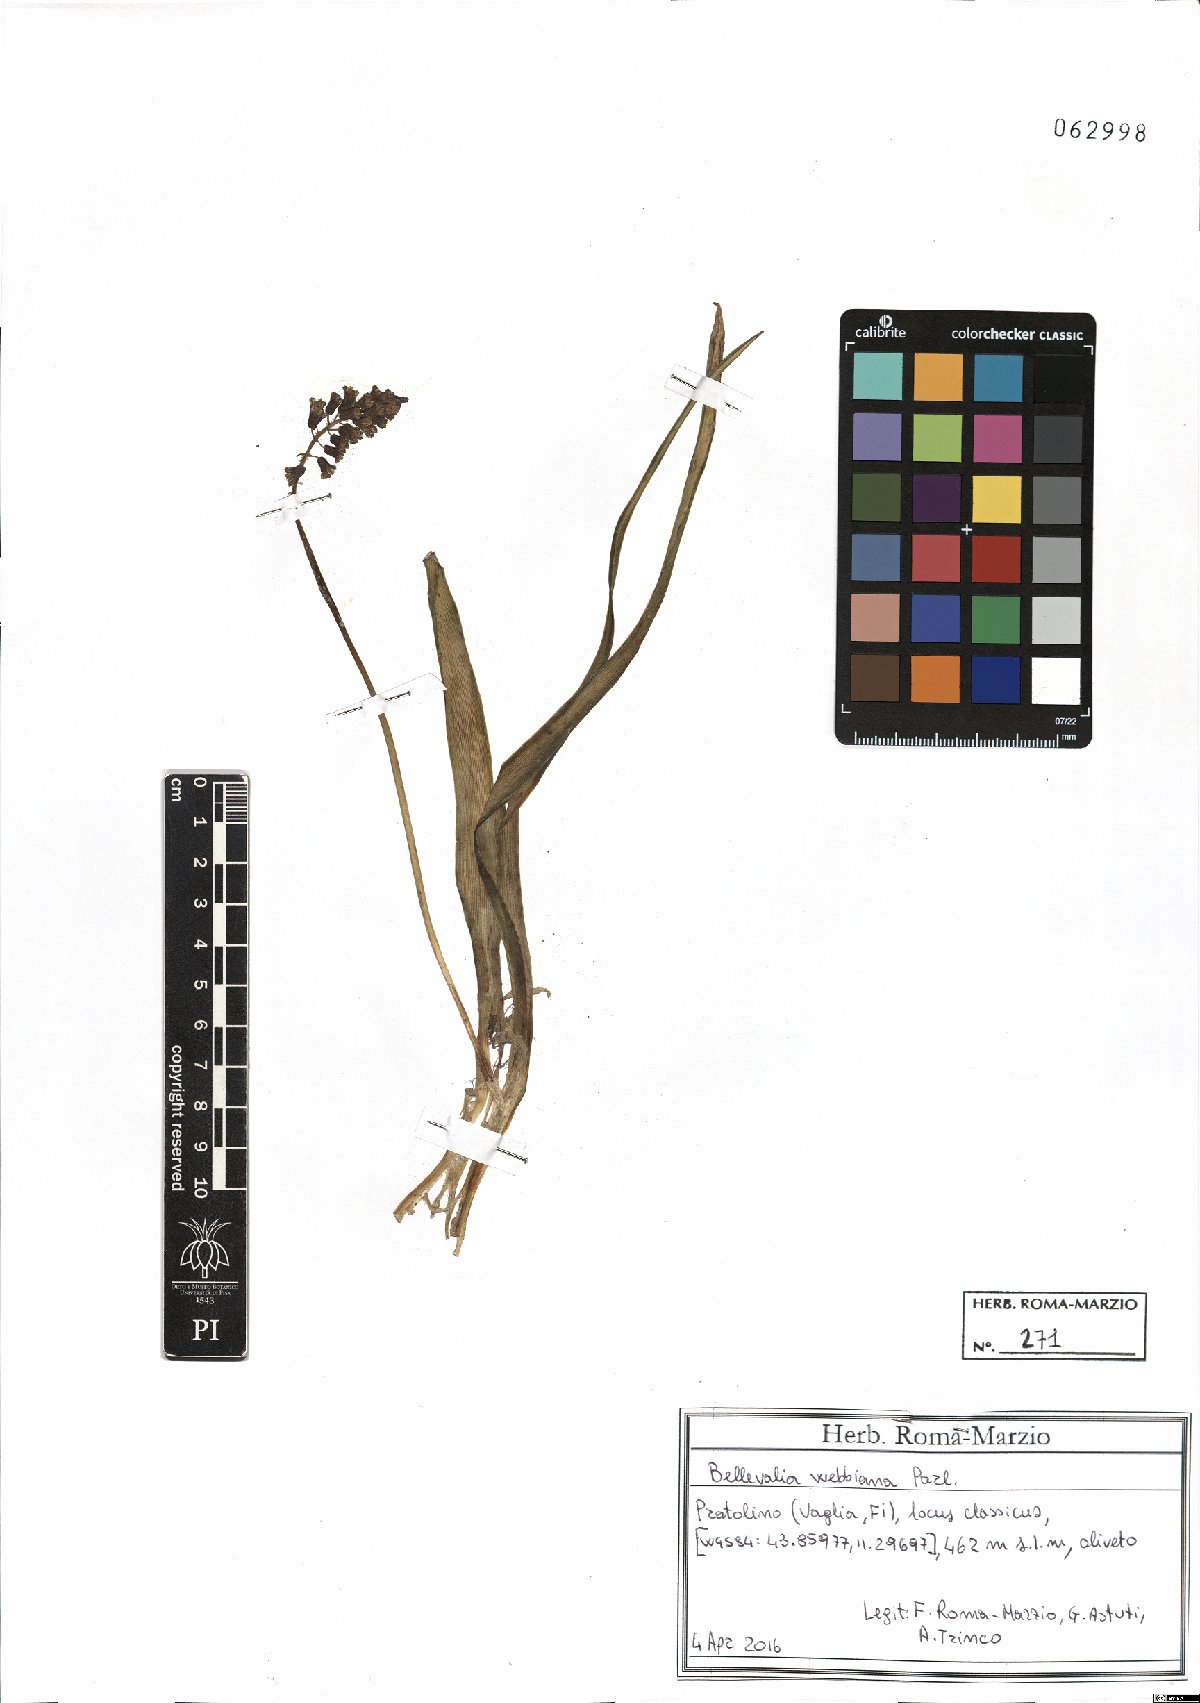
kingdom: Plantae
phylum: Tracheophyta
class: Liliopsida
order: Asparagales
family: Asparagaceae
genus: Bellevalia
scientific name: Bellevalia webbiana
